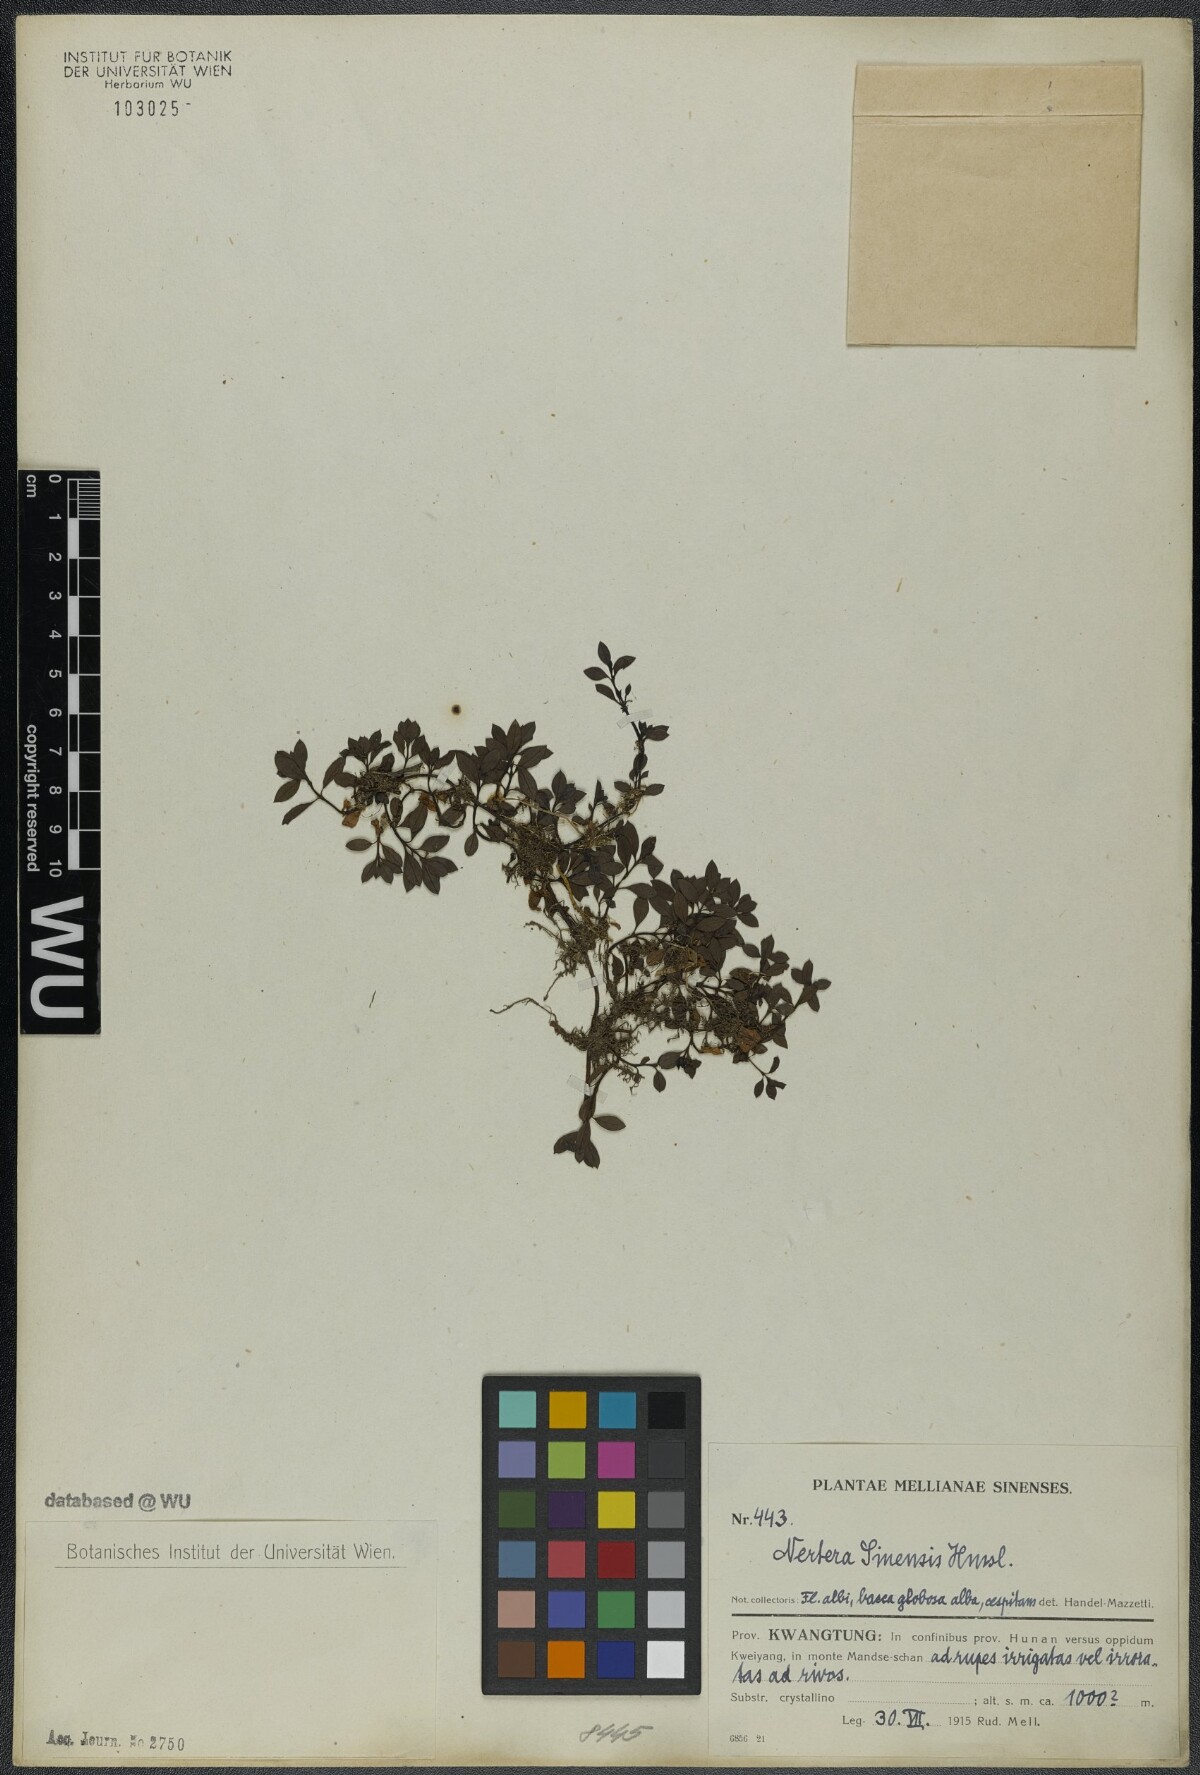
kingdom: Plantae
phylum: Tracheophyta
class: Magnoliopsida
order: Gentianales
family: Rubiaceae
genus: Nertera
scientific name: Nertera sinensis
